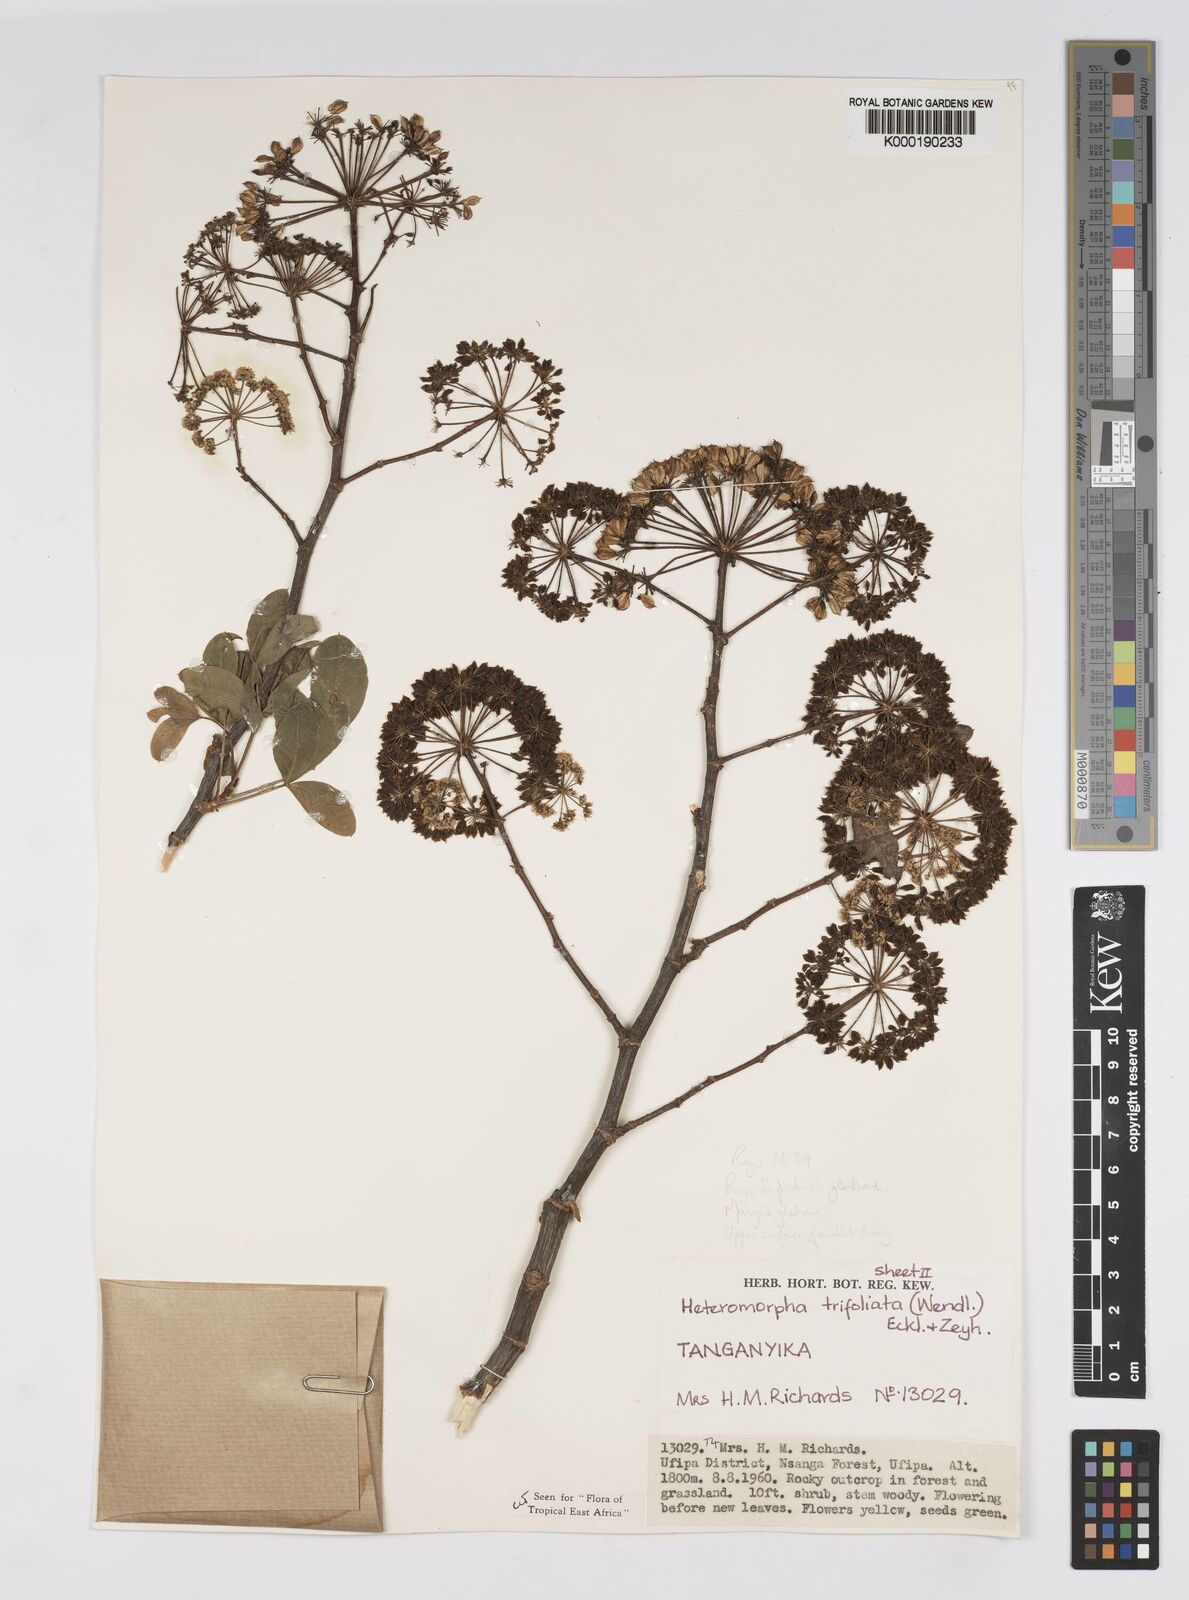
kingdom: Plantae
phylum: Tracheophyta
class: Magnoliopsida
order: Apiales
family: Apiaceae
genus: Heteromorpha
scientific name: Heteromorpha arborescens
